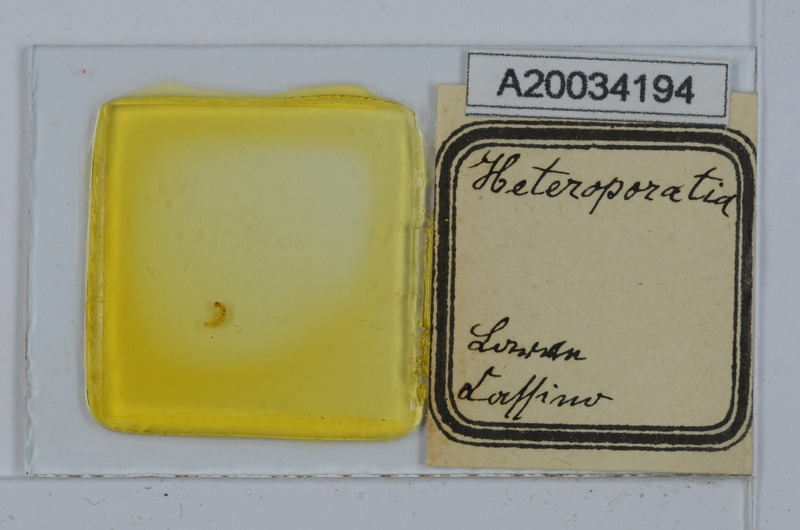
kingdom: Animalia
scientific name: Animalia
